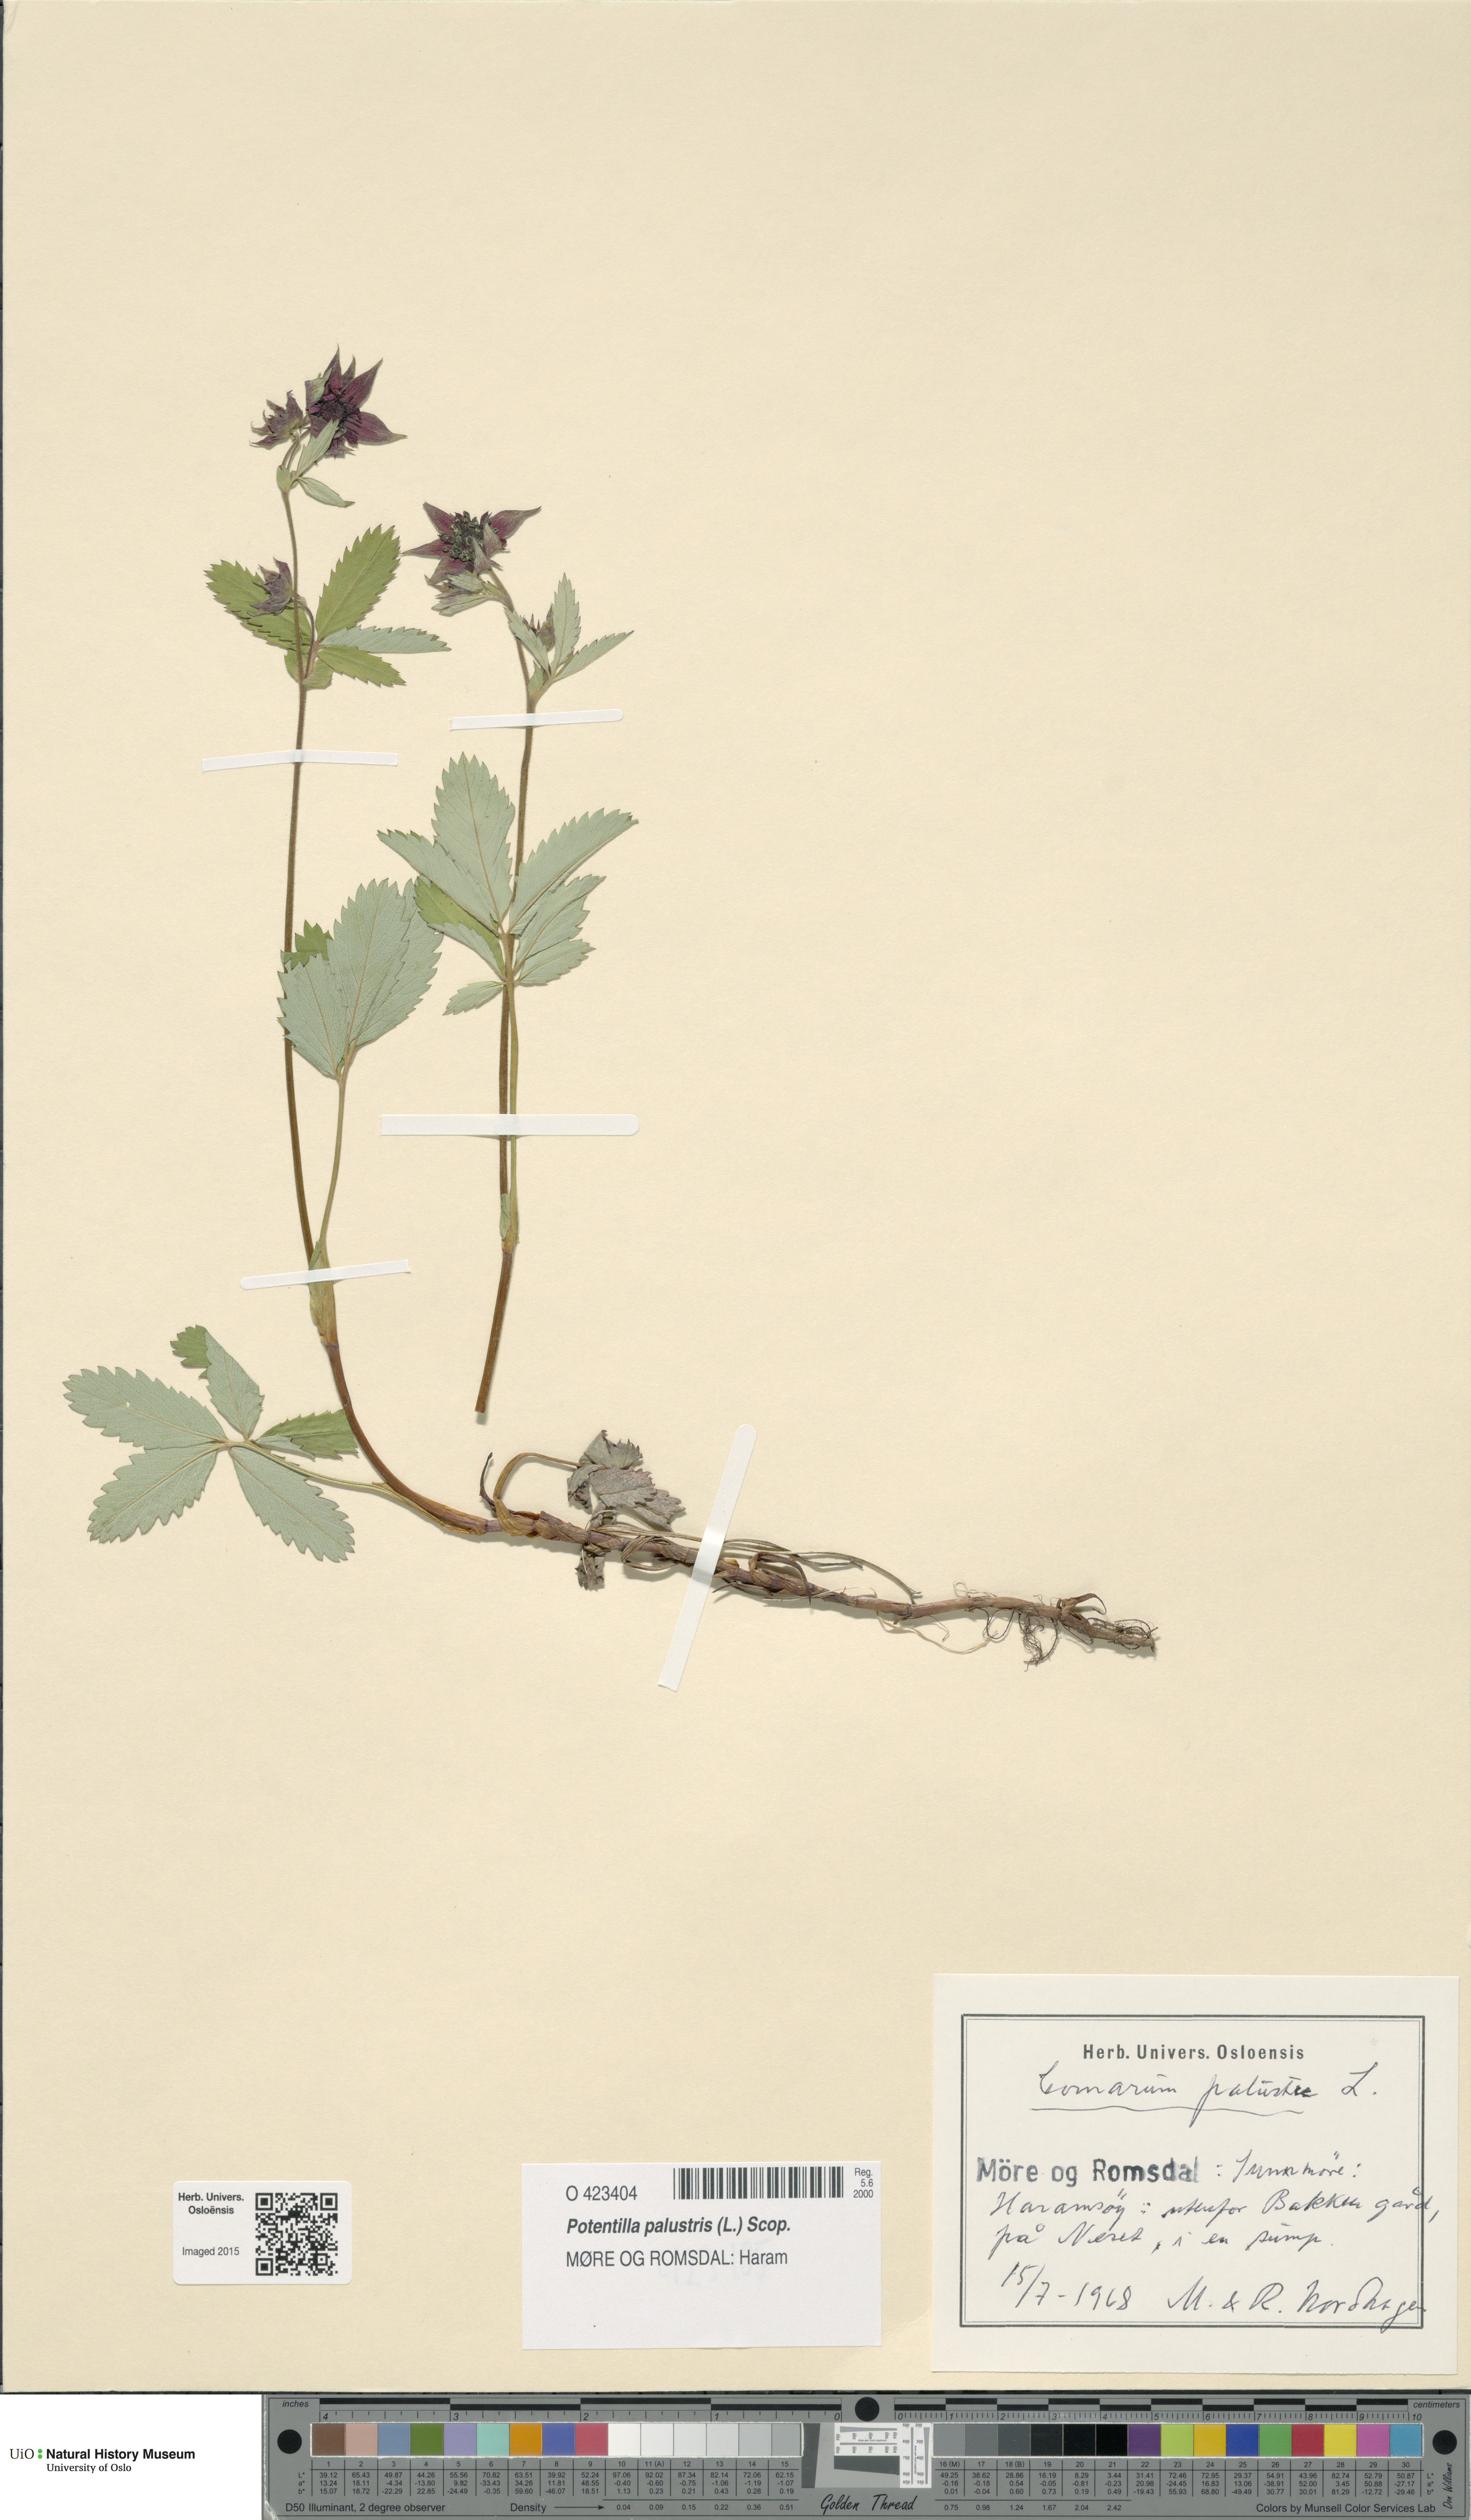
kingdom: Plantae
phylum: Tracheophyta
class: Magnoliopsida
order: Rosales
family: Rosaceae
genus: Comarum
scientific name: Comarum palustre
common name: Marsh cinquefoil
